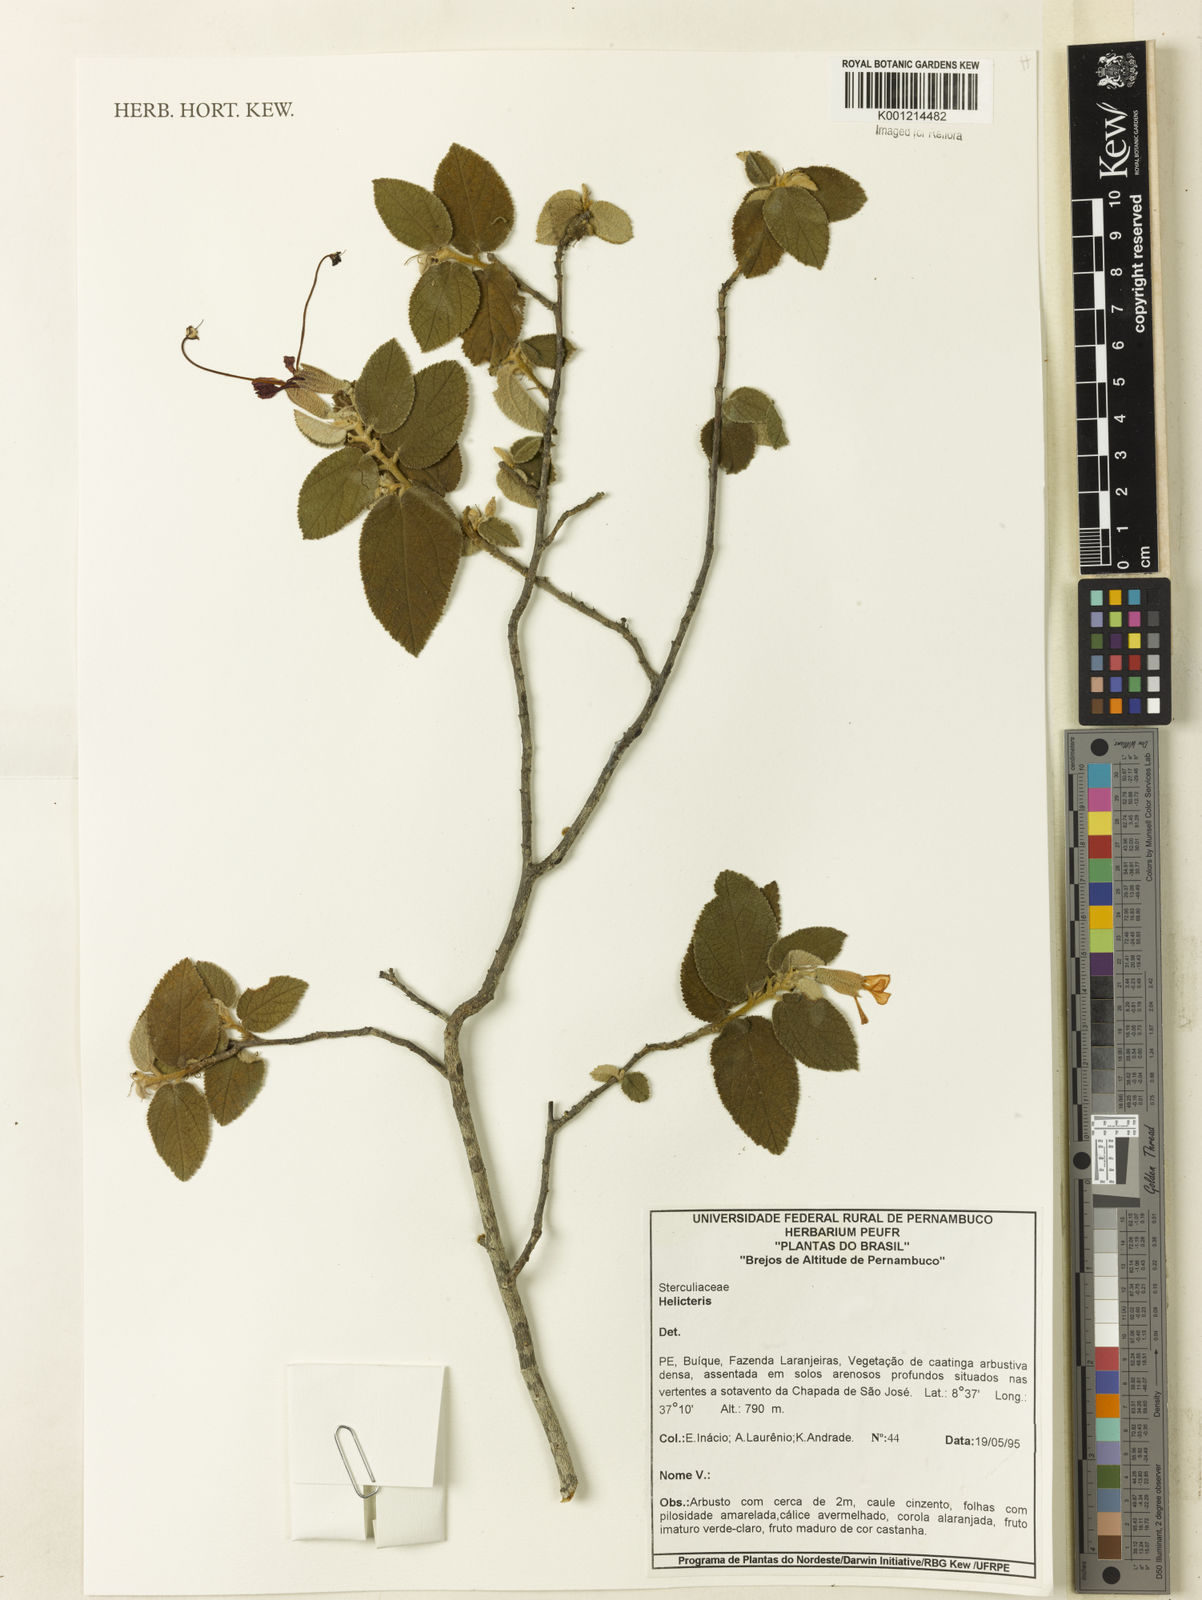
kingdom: Plantae
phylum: Tracheophyta
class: Magnoliopsida
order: Malvales
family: Malvaceae
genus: Helicteres
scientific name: Helicteres
